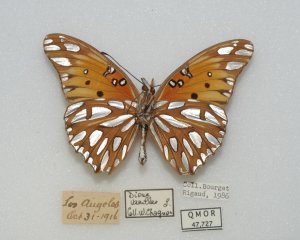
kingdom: Animalia
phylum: Arthropoda
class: Insecta
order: Lepidoptera
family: Nymphalidae
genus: Dione
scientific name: Dione vanillae
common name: Gulf Fritillary
